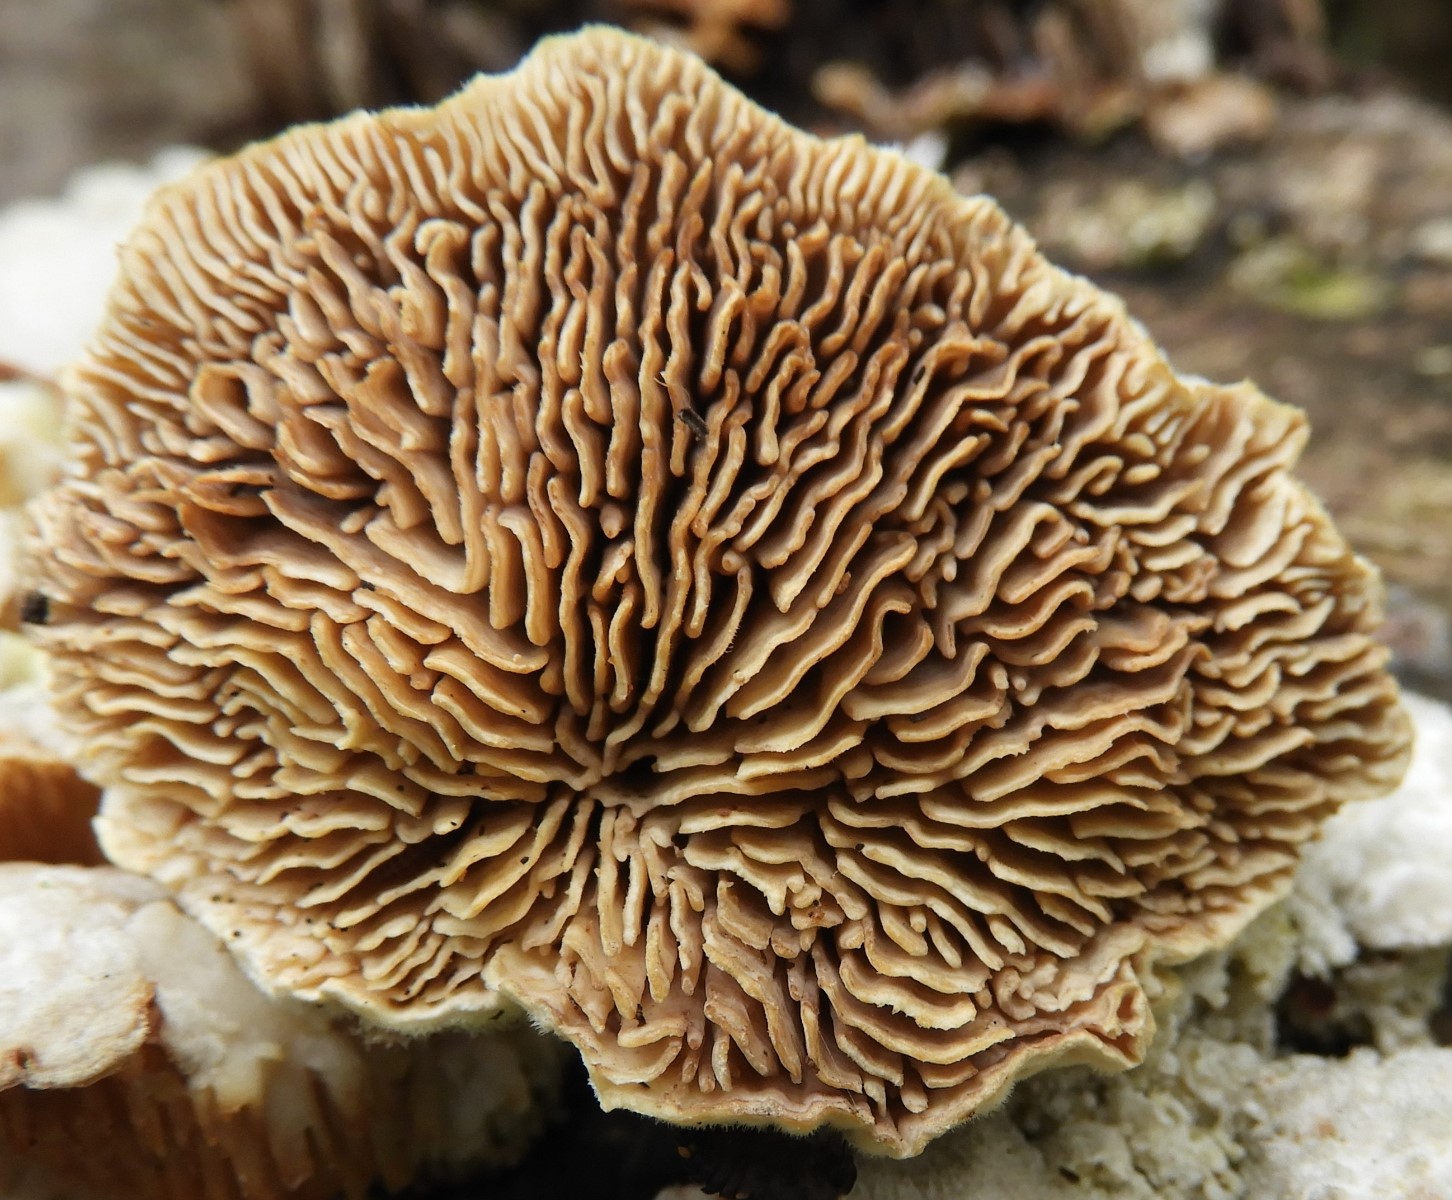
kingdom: Fungi
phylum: Basidiomycota
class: Agaricomycetes
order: Polyporales
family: Polyporaceae
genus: Lenzites
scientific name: Lenzites betulinus
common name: birke-læderporesvamp
